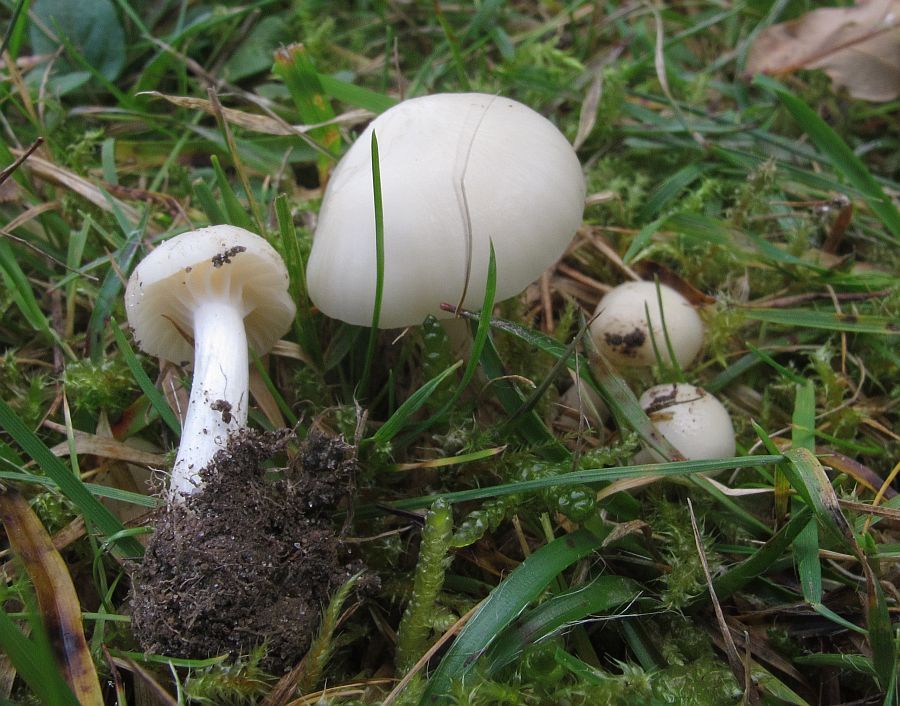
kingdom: Fungi
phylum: Basidiomycota
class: Agaricomycetes
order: Agaricales
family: Hygrophoraceae
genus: Cuphophyllus
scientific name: Cuphophyllus virgineus
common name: snehvid vokshat
